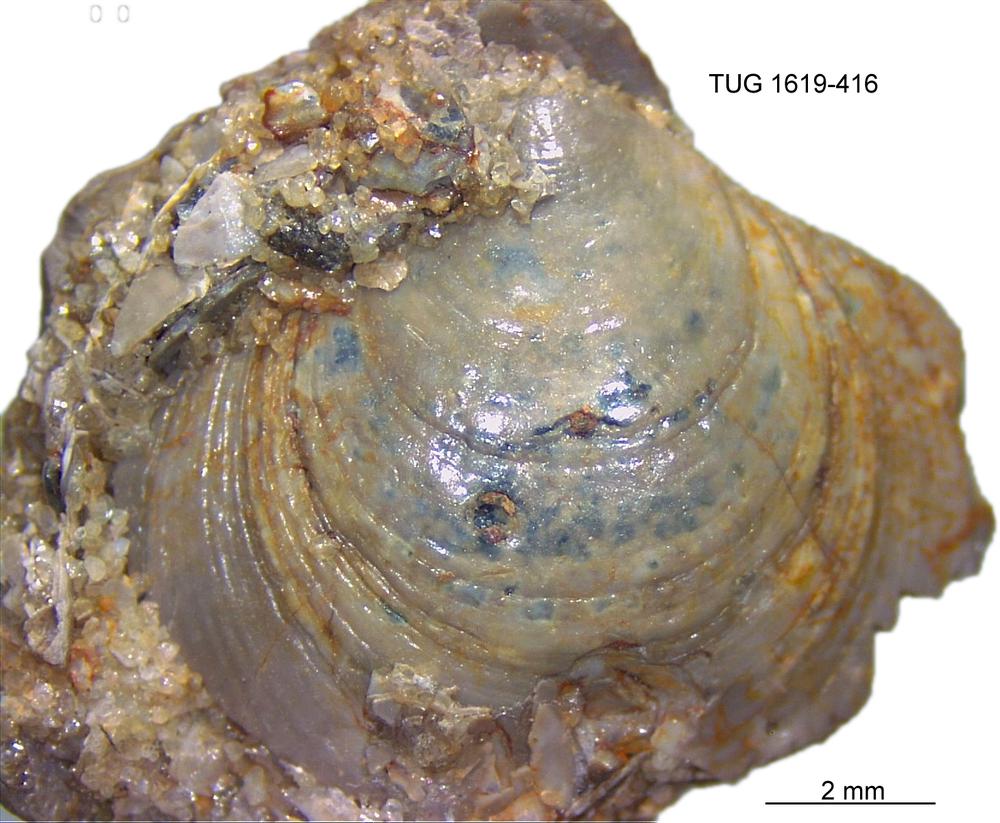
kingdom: Animalia
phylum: Porifera
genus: Ungula
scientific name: Ungula
